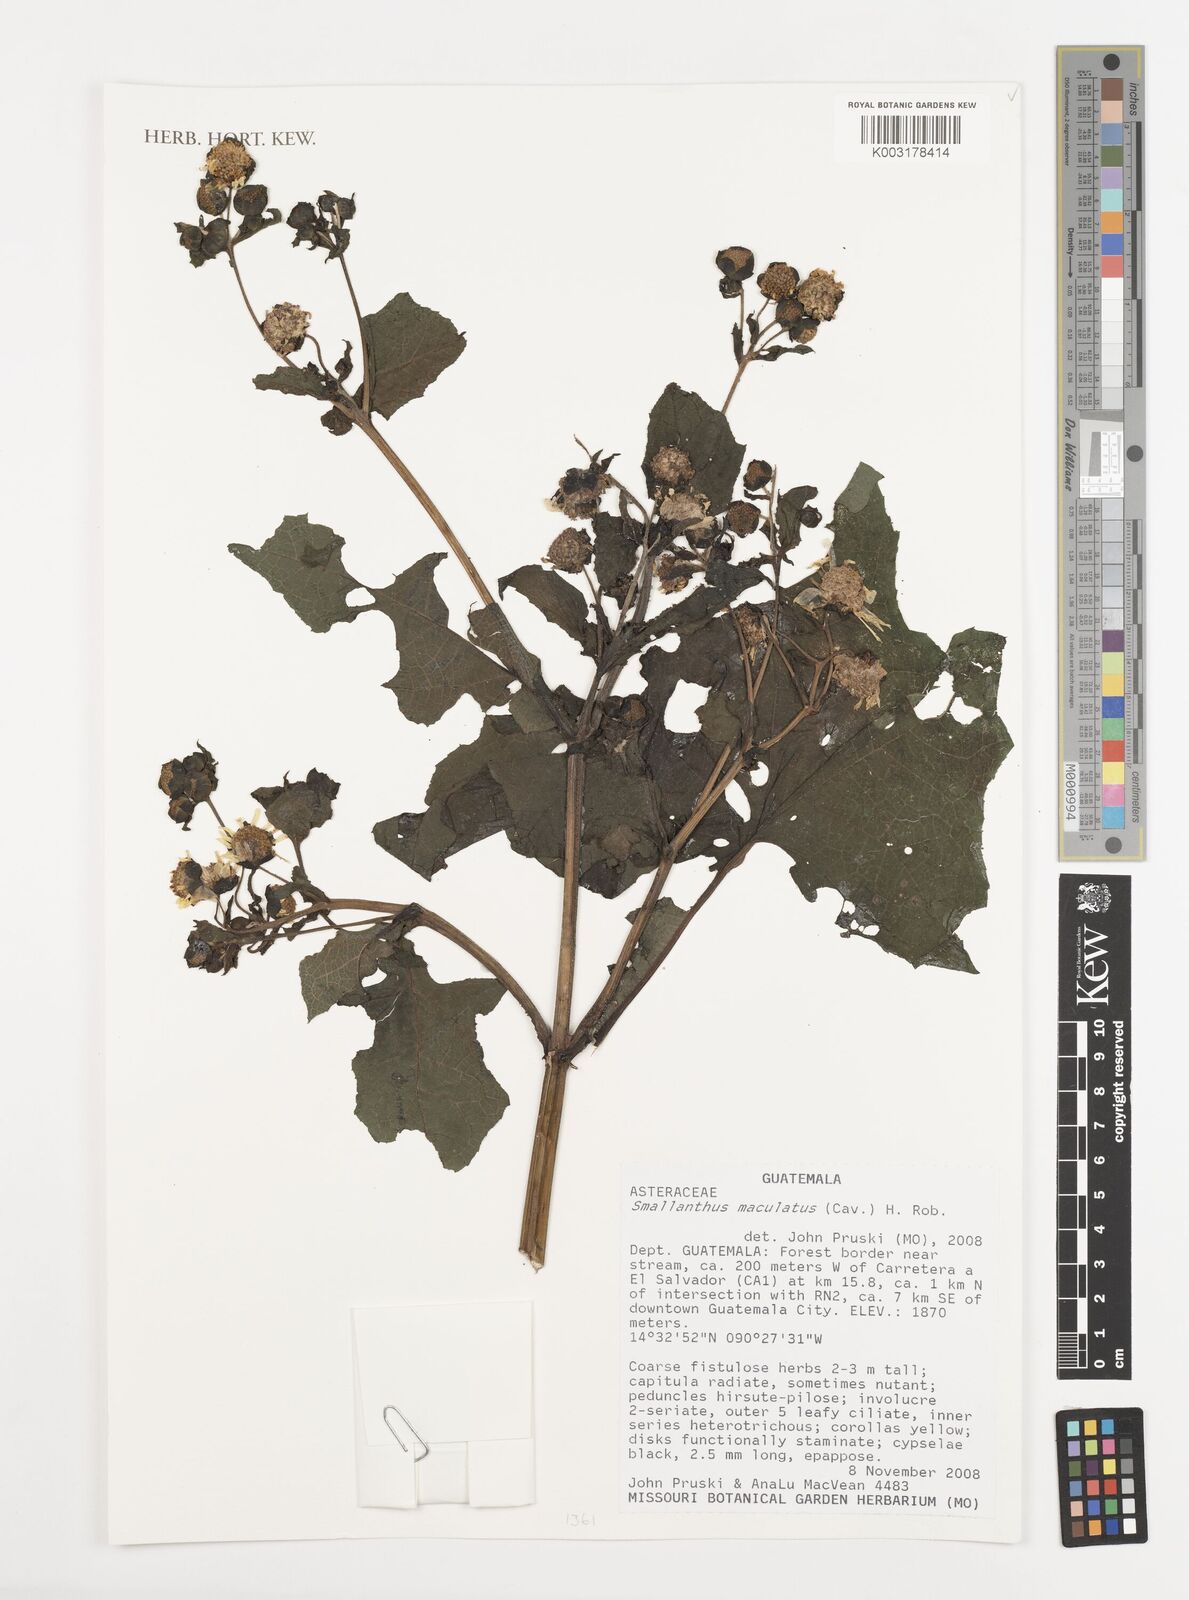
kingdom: Plantae
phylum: Tracheophyta
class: Magnoliopsida
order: Asterales
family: Asteraceae
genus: Smallanthus
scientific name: Smallanthus maculatus
